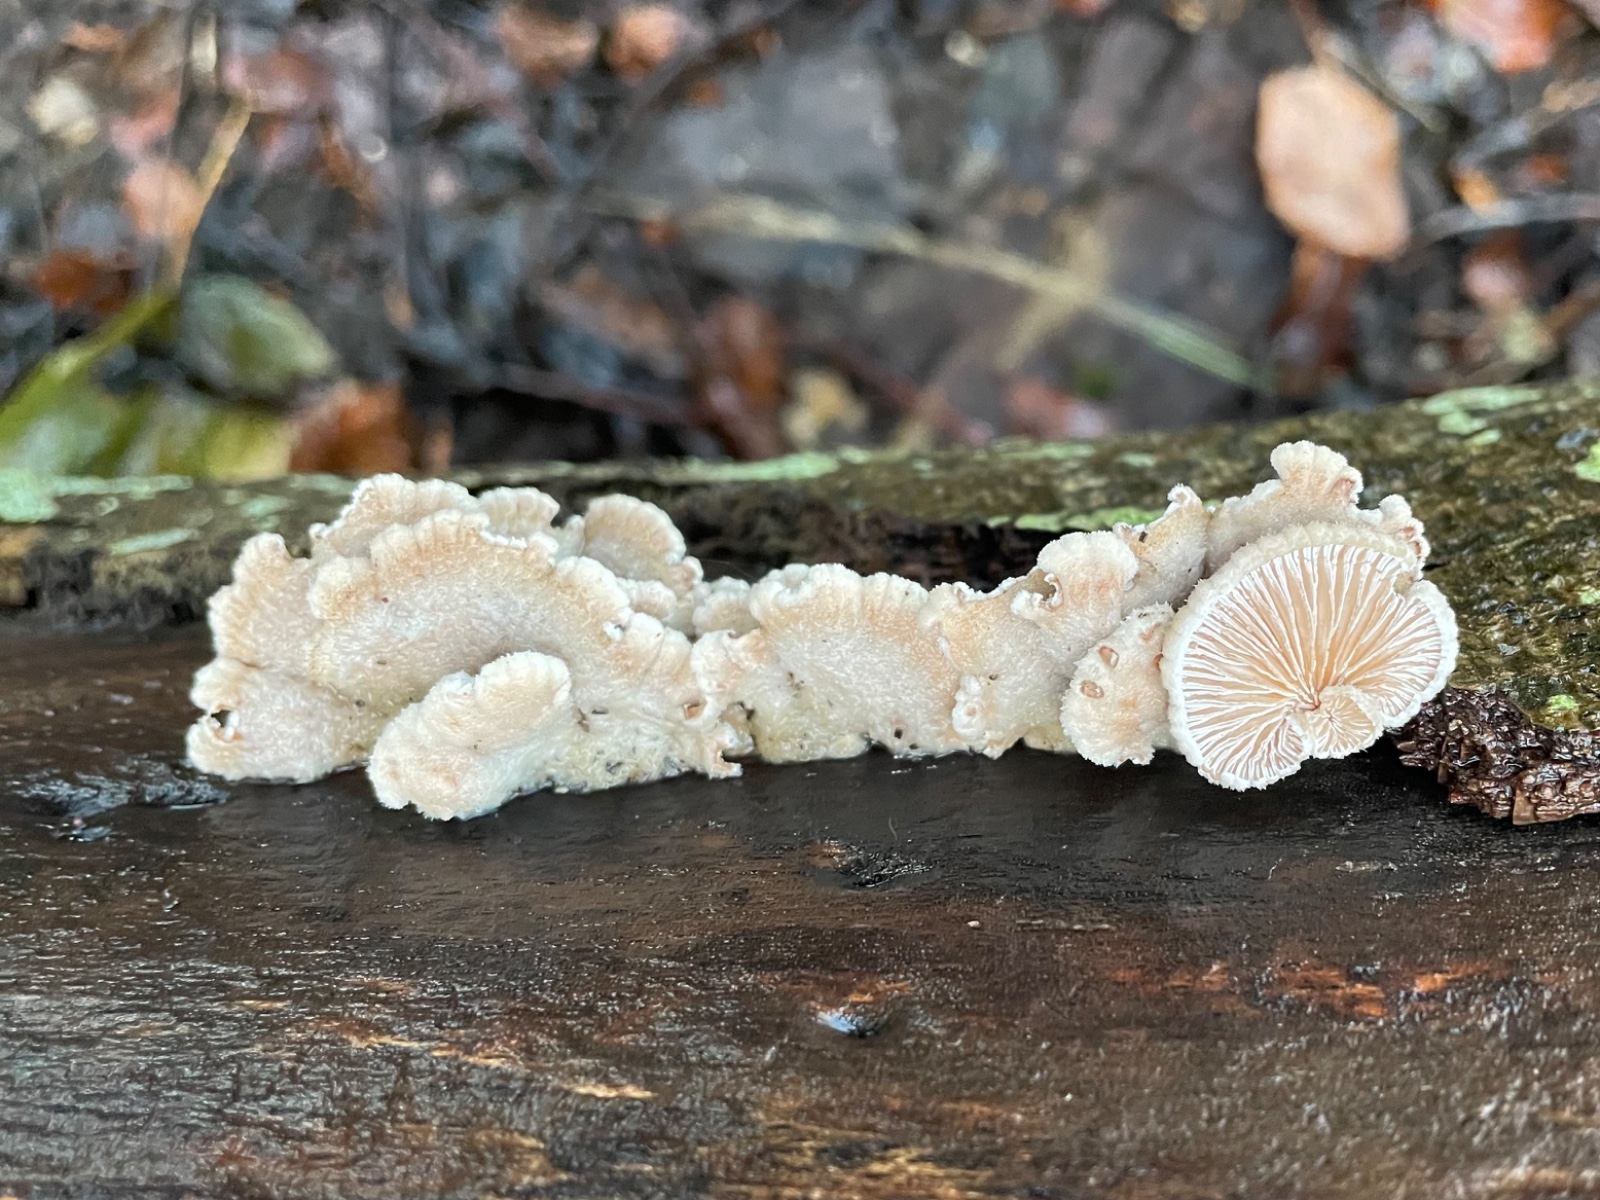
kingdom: Fungi
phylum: Basidiomycota
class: Agaricomycetes
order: Agaricales
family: Schizophyllaceae
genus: Schizophyllum
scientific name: Schizophyllum commune
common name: kløvblad
